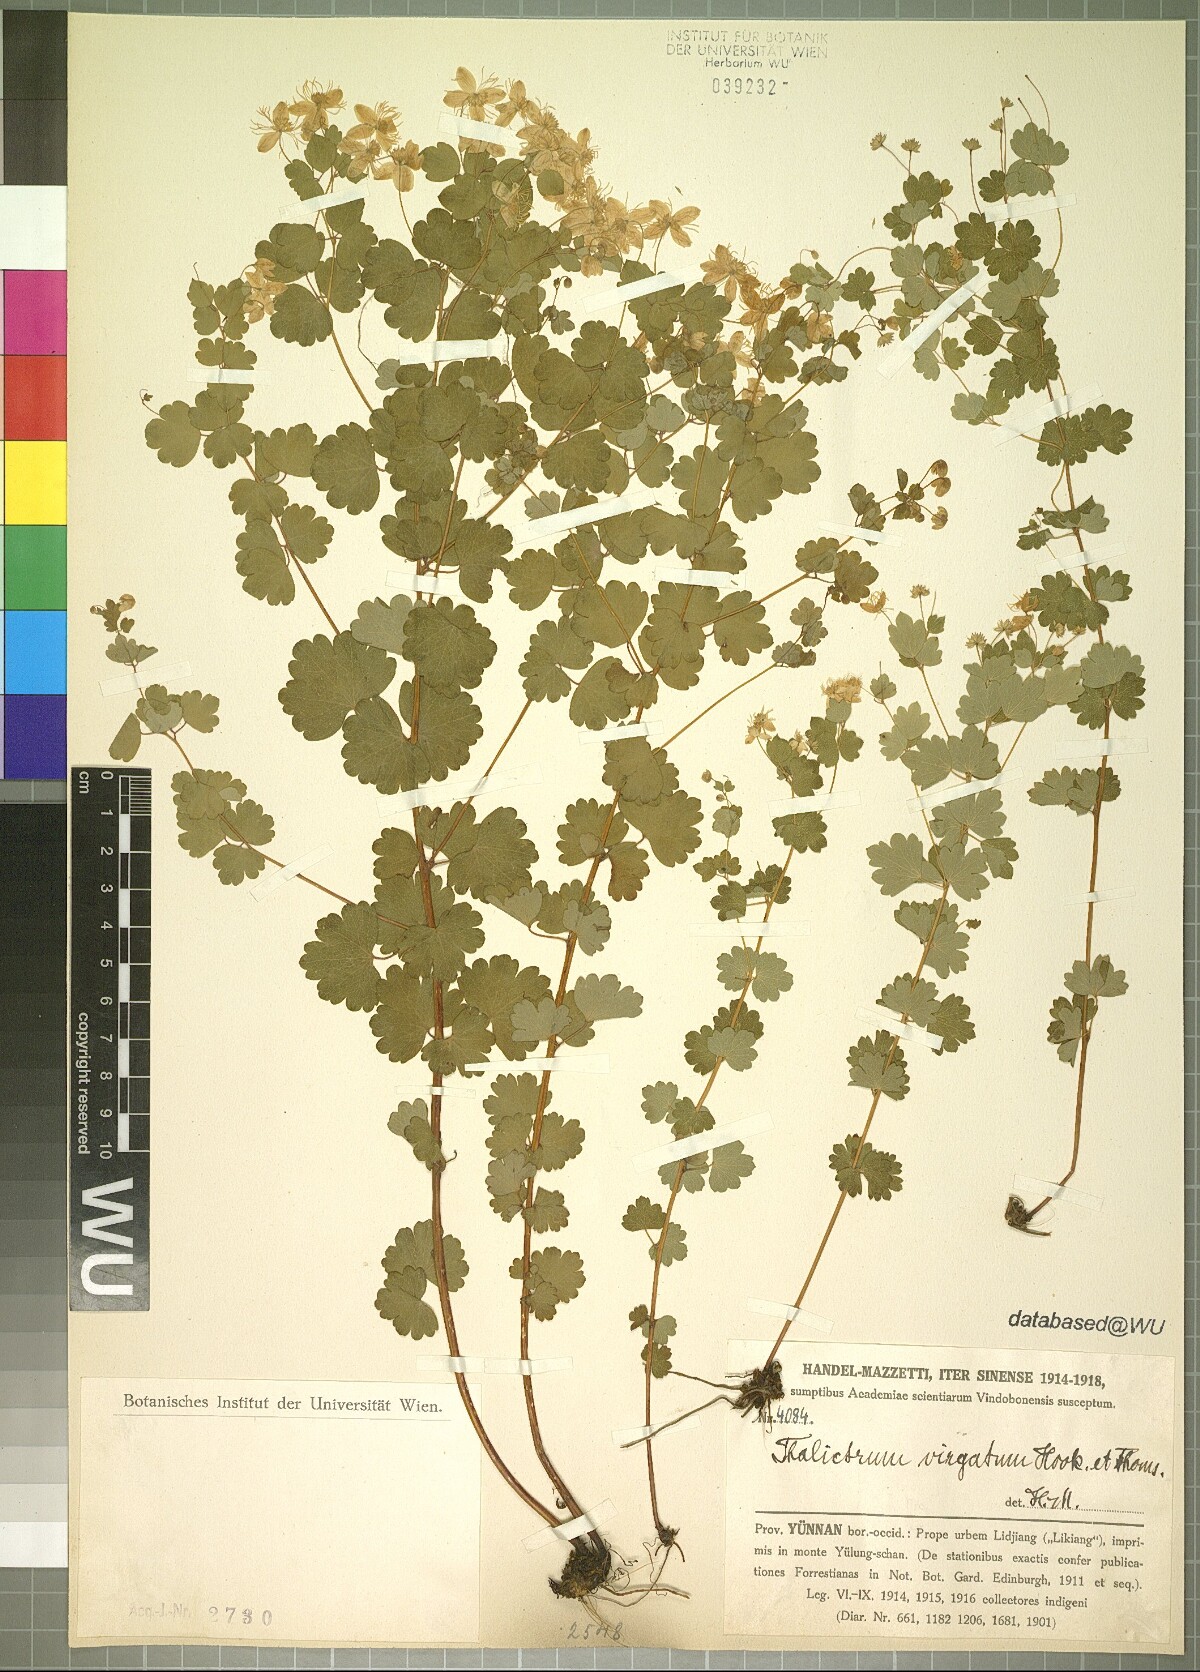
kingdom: Plantae
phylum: Tracheophyta
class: Magnoliopsida
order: Ranunculales
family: Ranunculaceae
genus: Thalictrum
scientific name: Thalictrum virgatum
